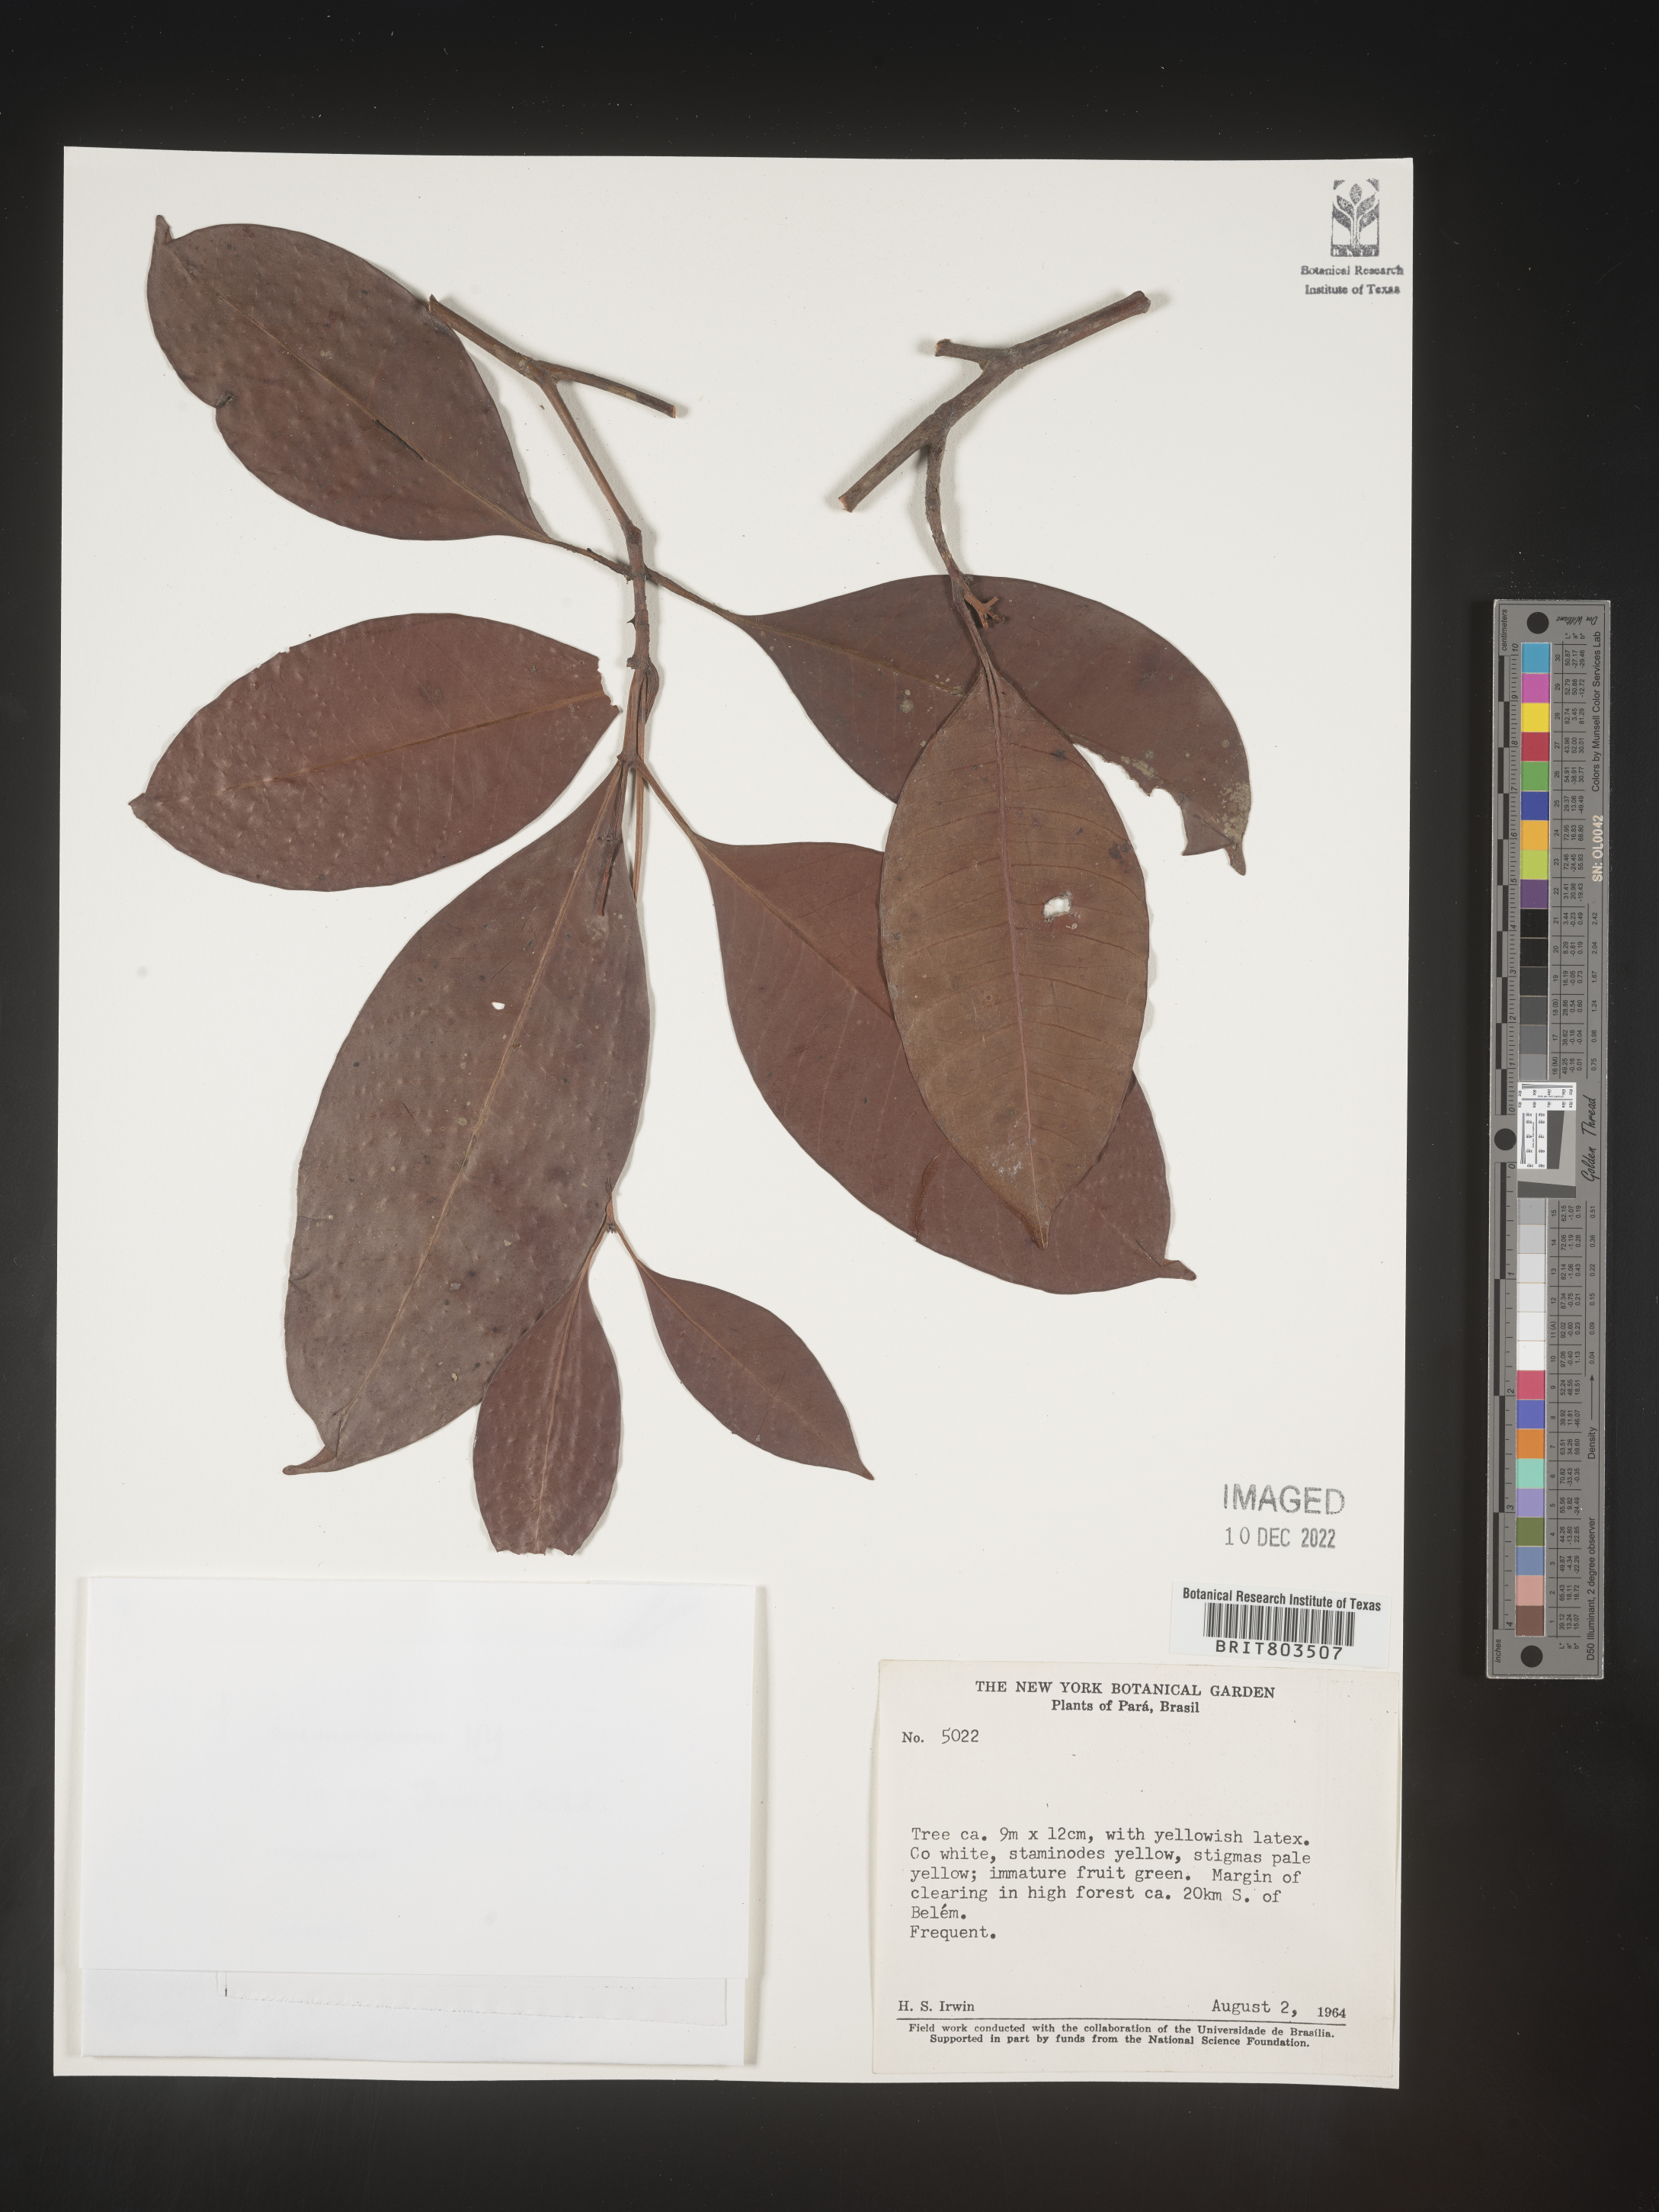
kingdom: Plantae
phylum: Tracheophyta
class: Magnoliopsida
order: Malpighiales
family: Clusiaceae
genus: Tovomita
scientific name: Tovomita
